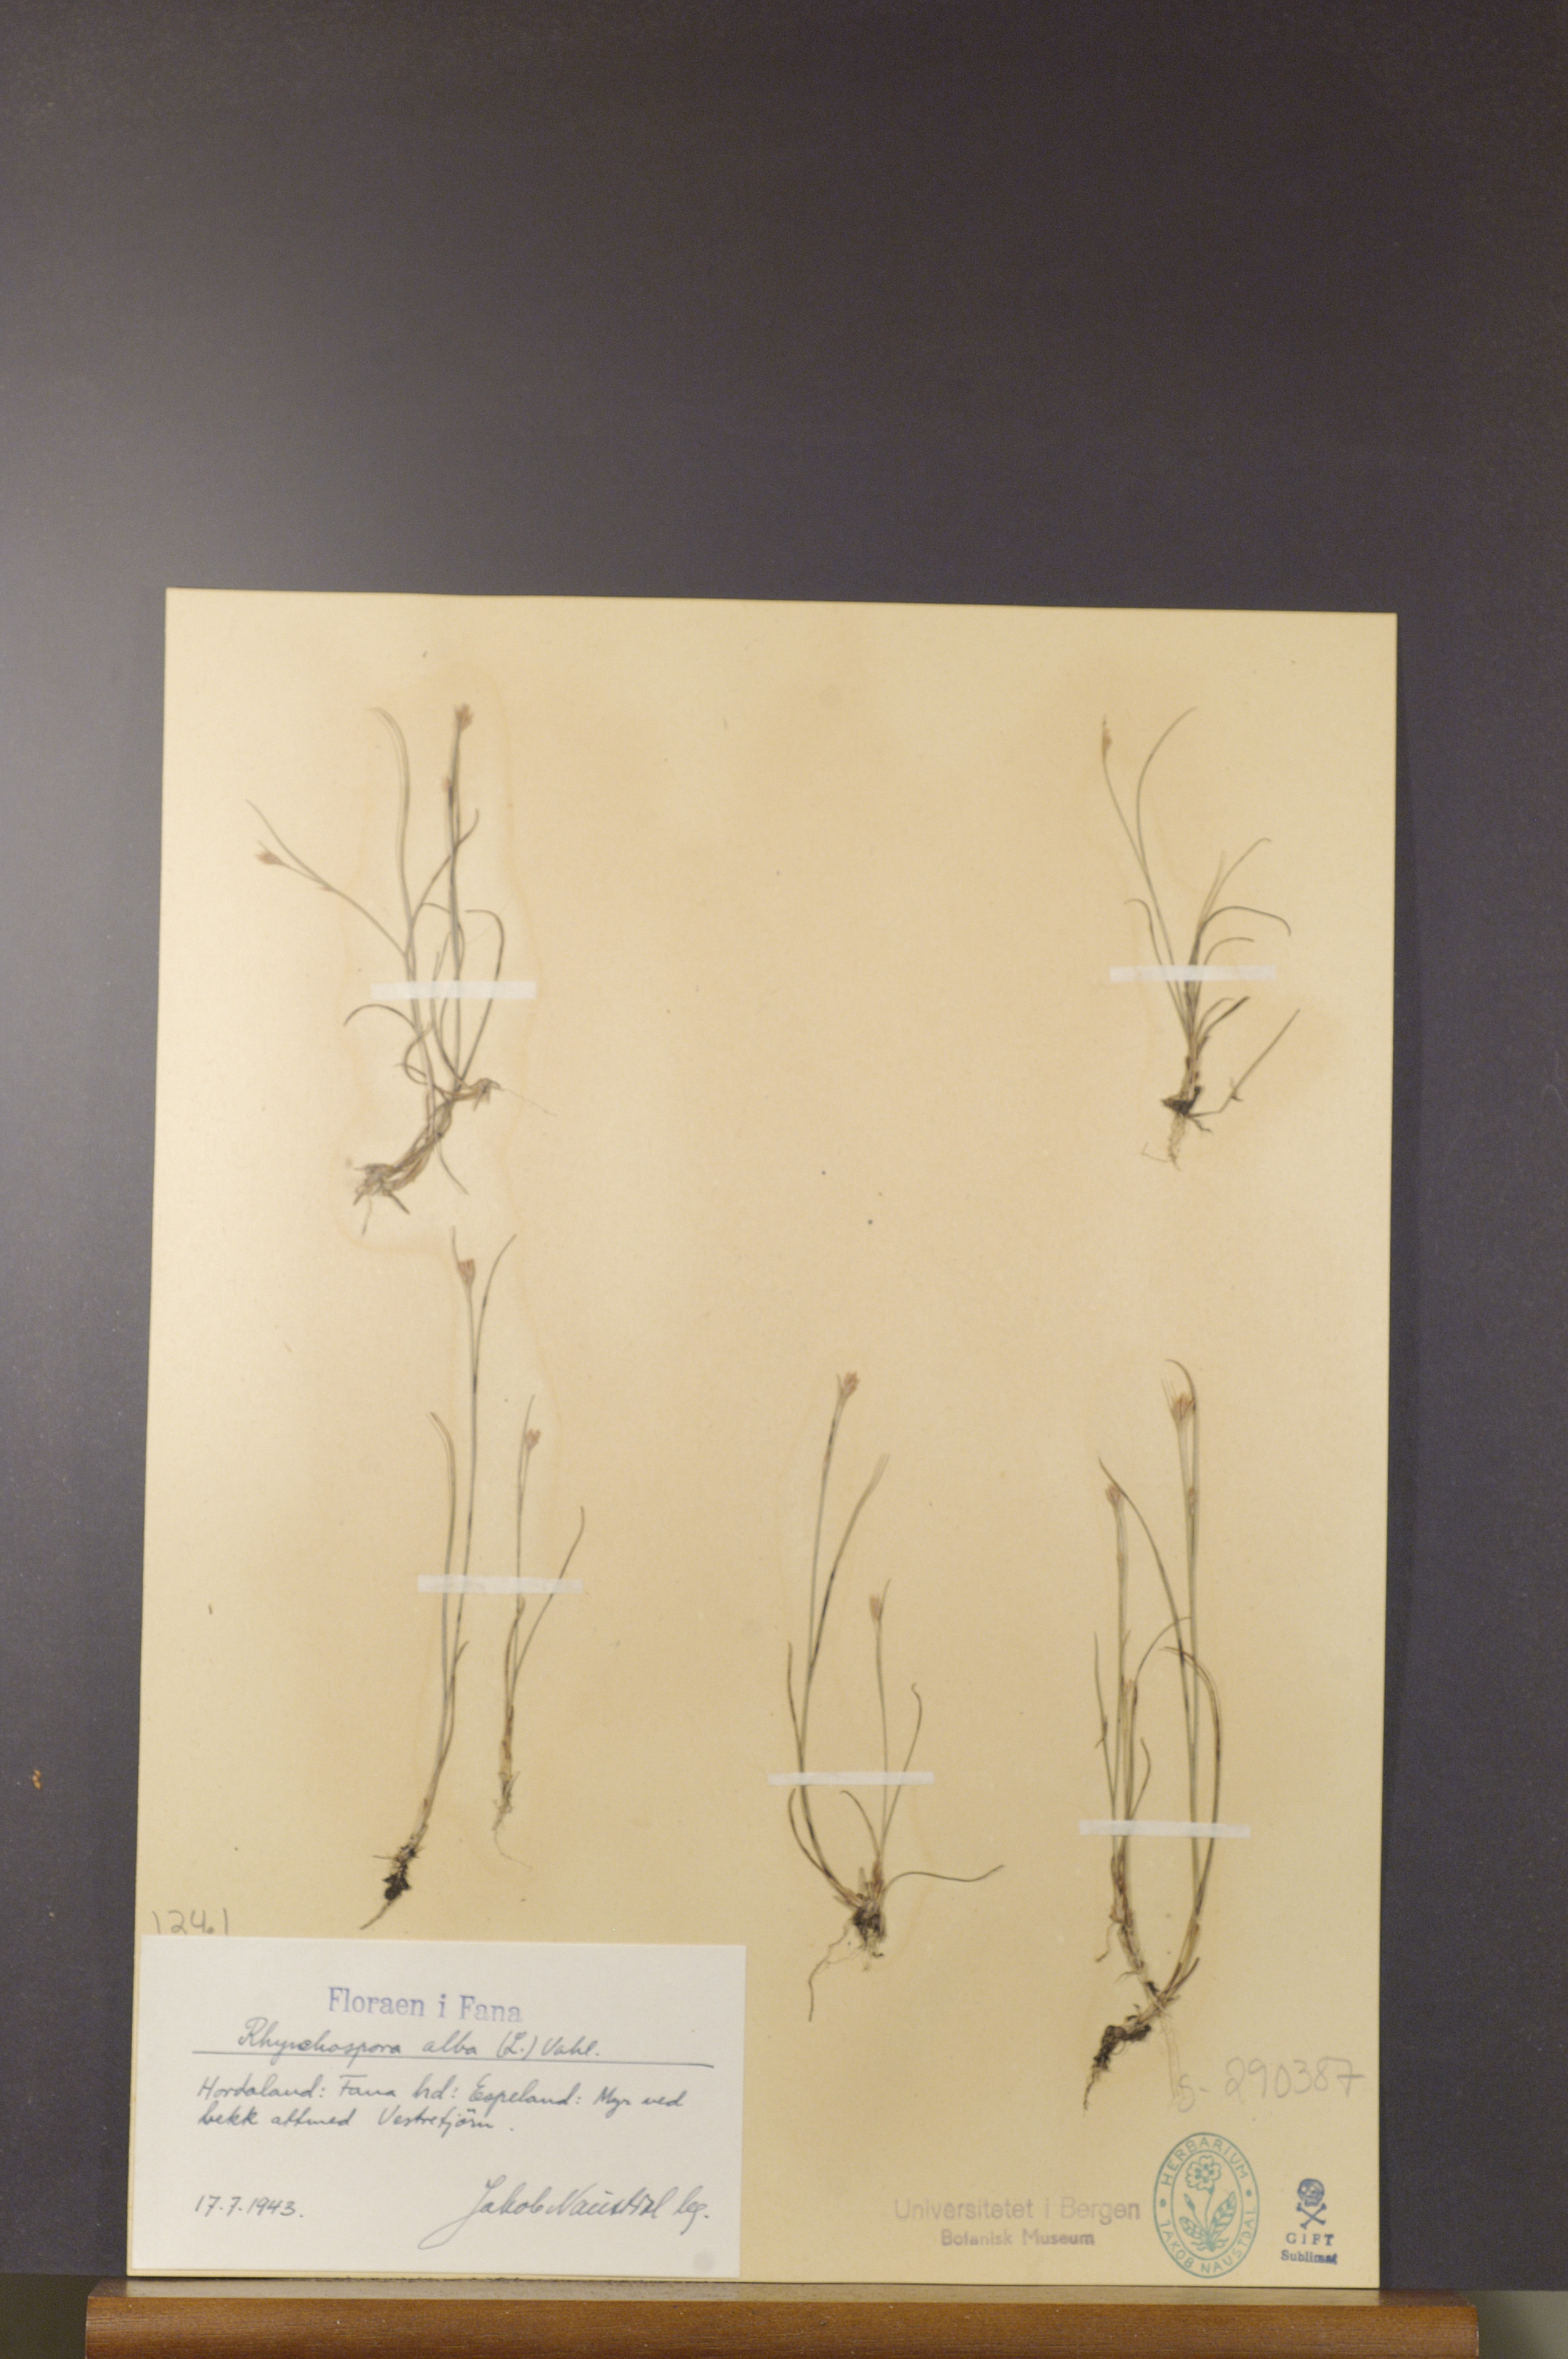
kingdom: Plantae
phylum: Tracheophyta
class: Liliopsida
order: Poales
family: Cyperaceae
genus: Rhynchospora
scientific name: Rhynchospora alba
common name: White beak-sedge
